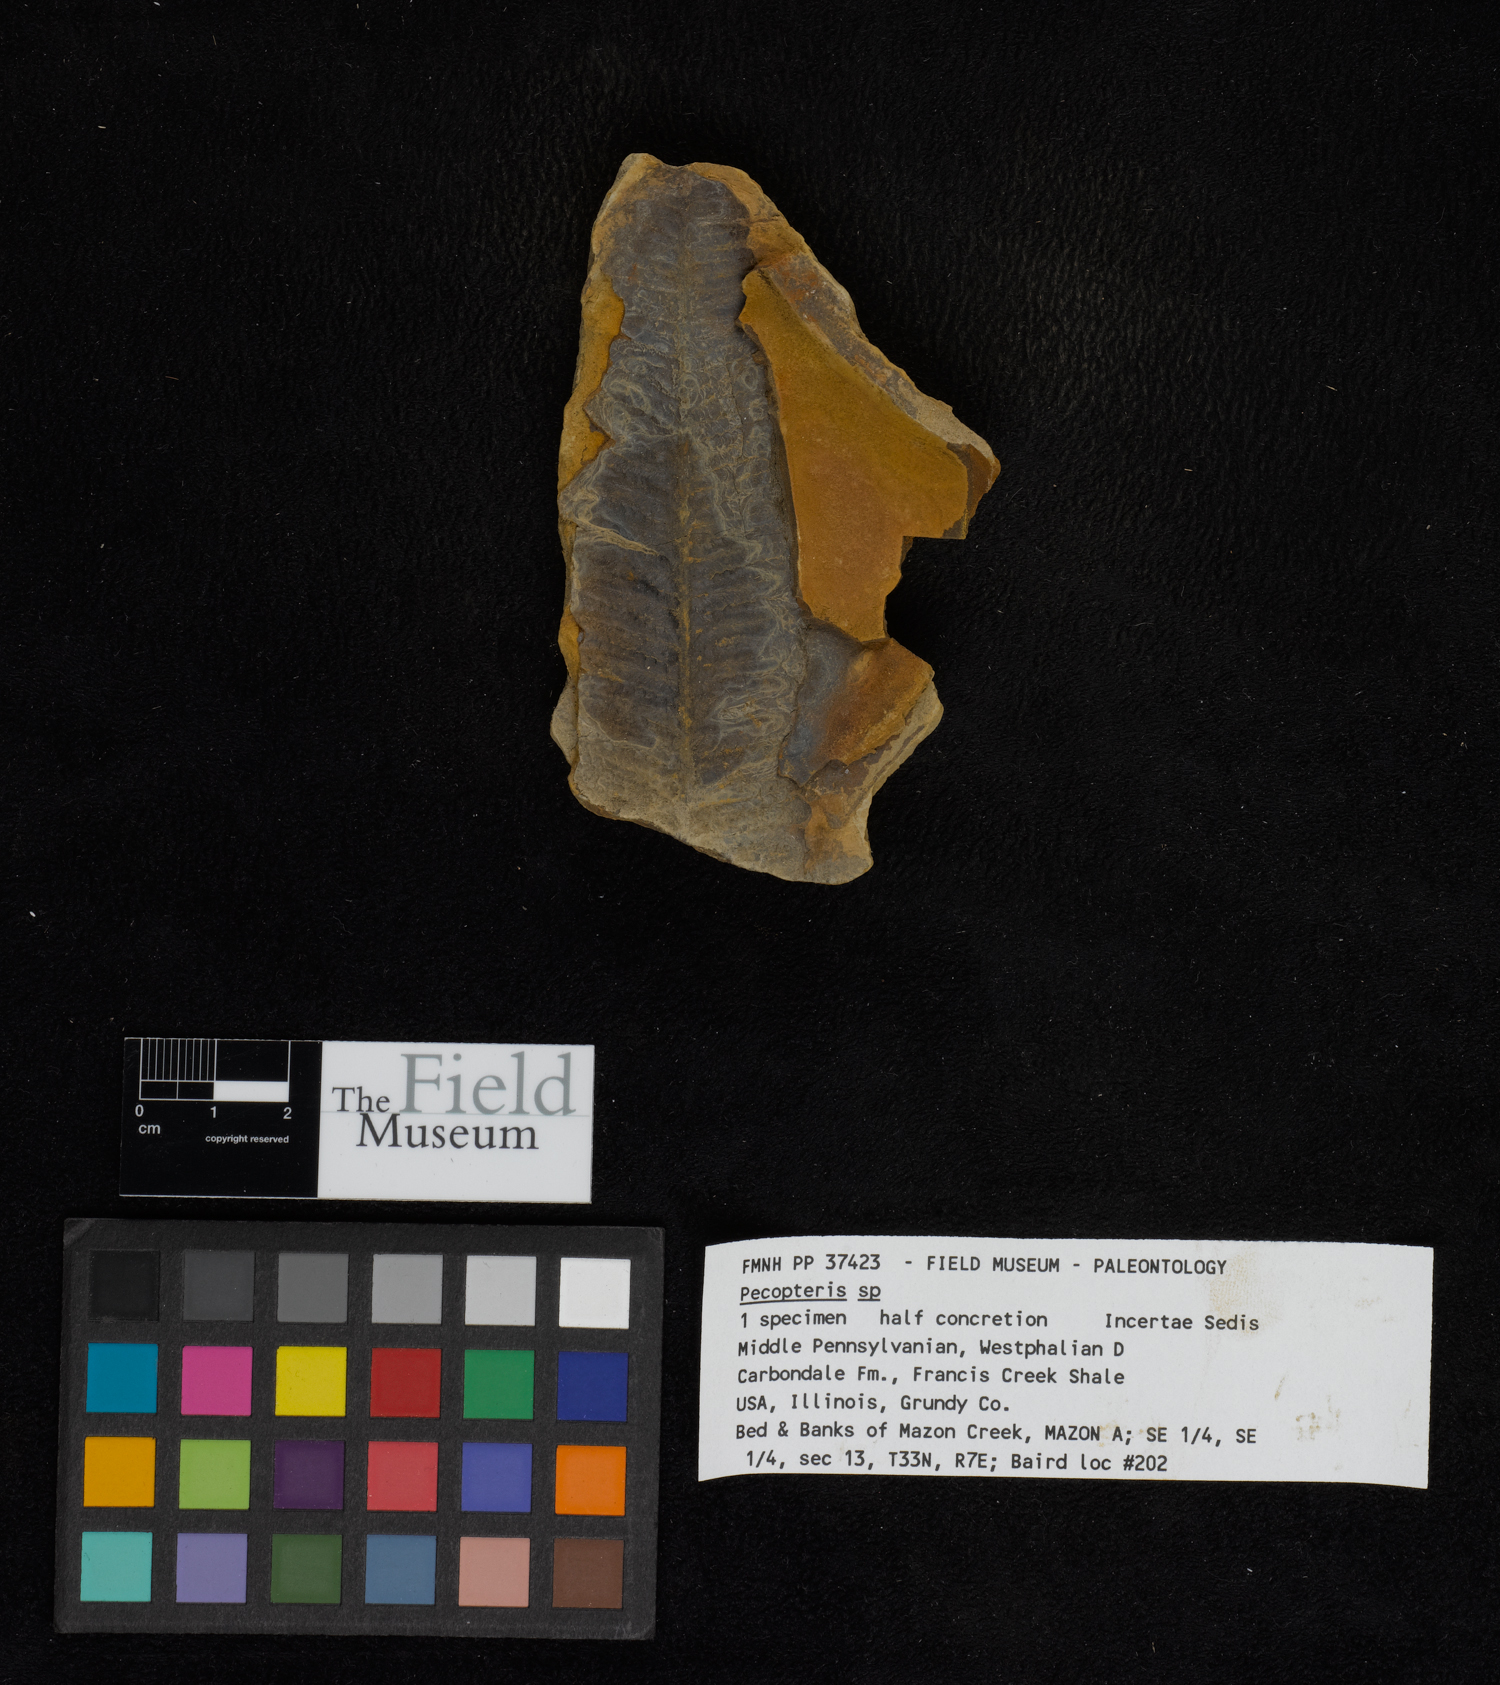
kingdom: Plantae
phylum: Tracheophyta
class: Polypodiopsida
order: Marattiales
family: Asterothecaceae
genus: Pecopteris
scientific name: Pecopteris
